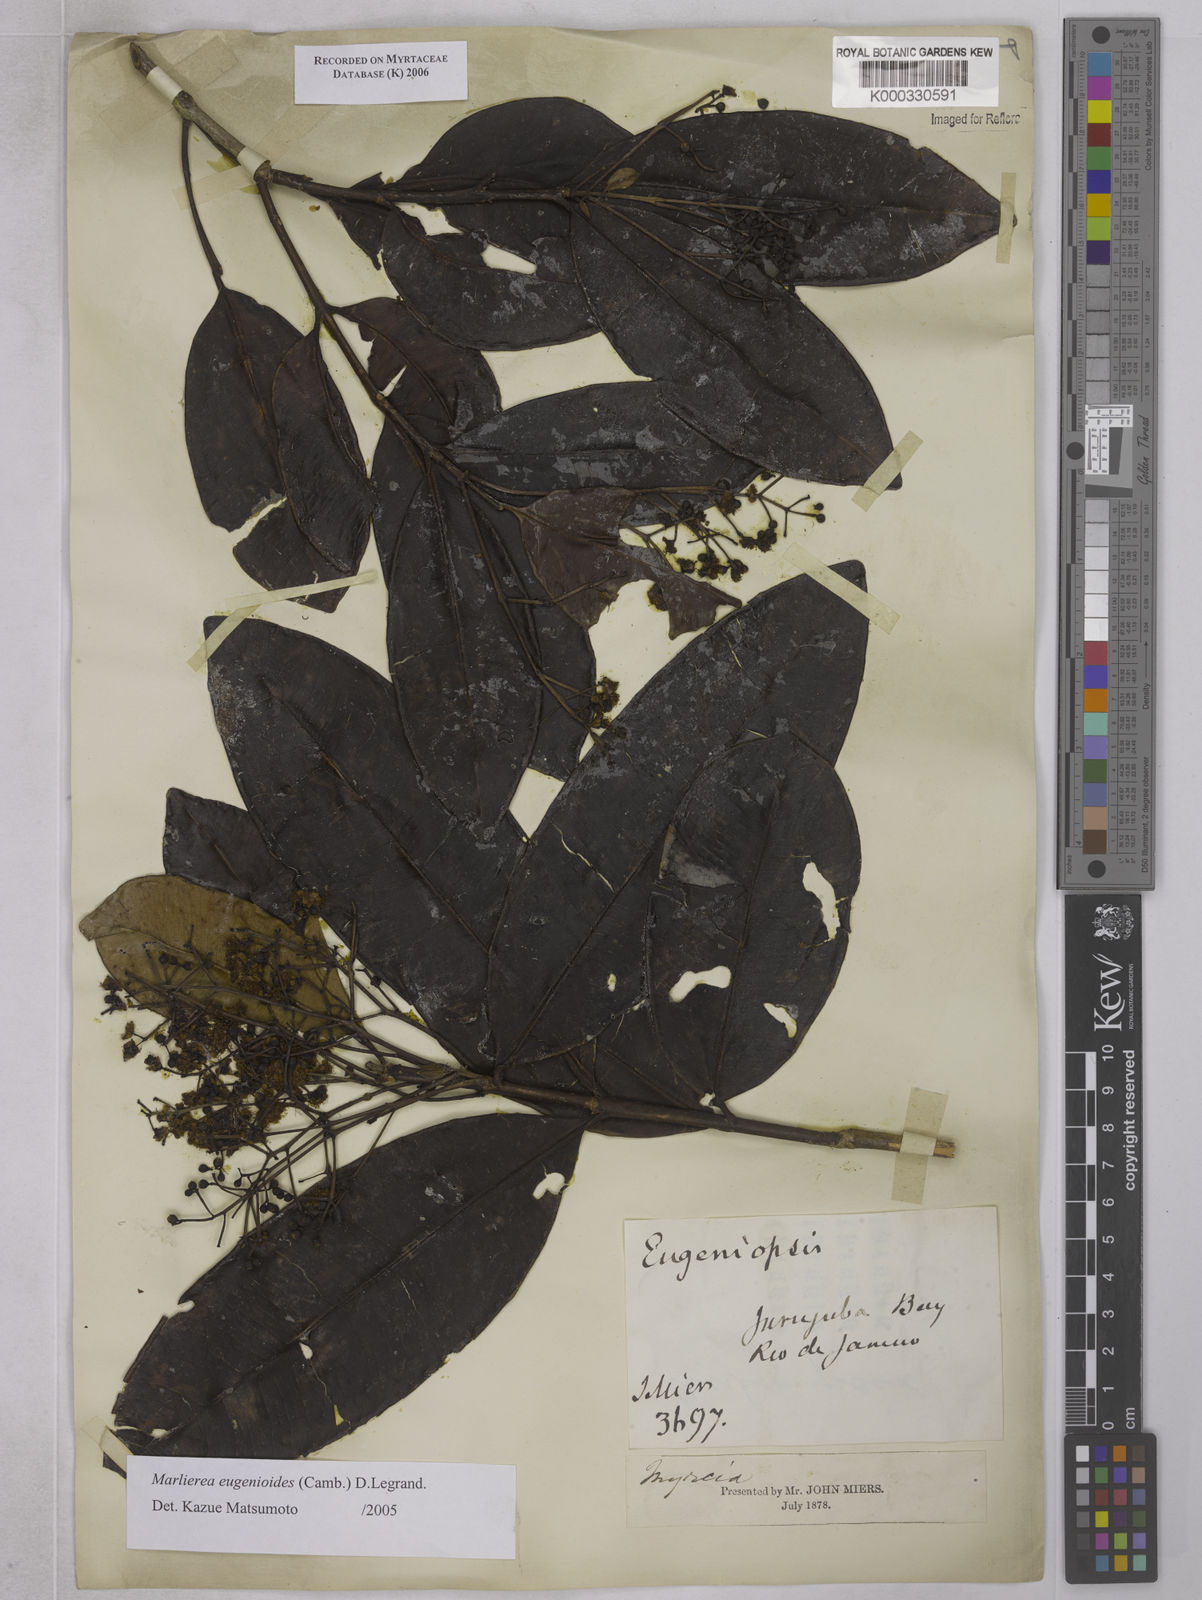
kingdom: Plantae
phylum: Tracheophyta
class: Magnoliopsida
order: Myrtales
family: Myrtaceae
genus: Myrcia
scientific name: Myrcia eugenioides
